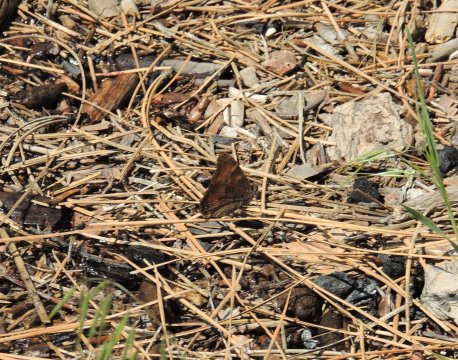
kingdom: Animalia
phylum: Arthropoda
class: Insecta
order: Lepidoptera
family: Nymphalidae
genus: Nymphalis
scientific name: Nymphalis californica
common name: California Tortoiseshell
